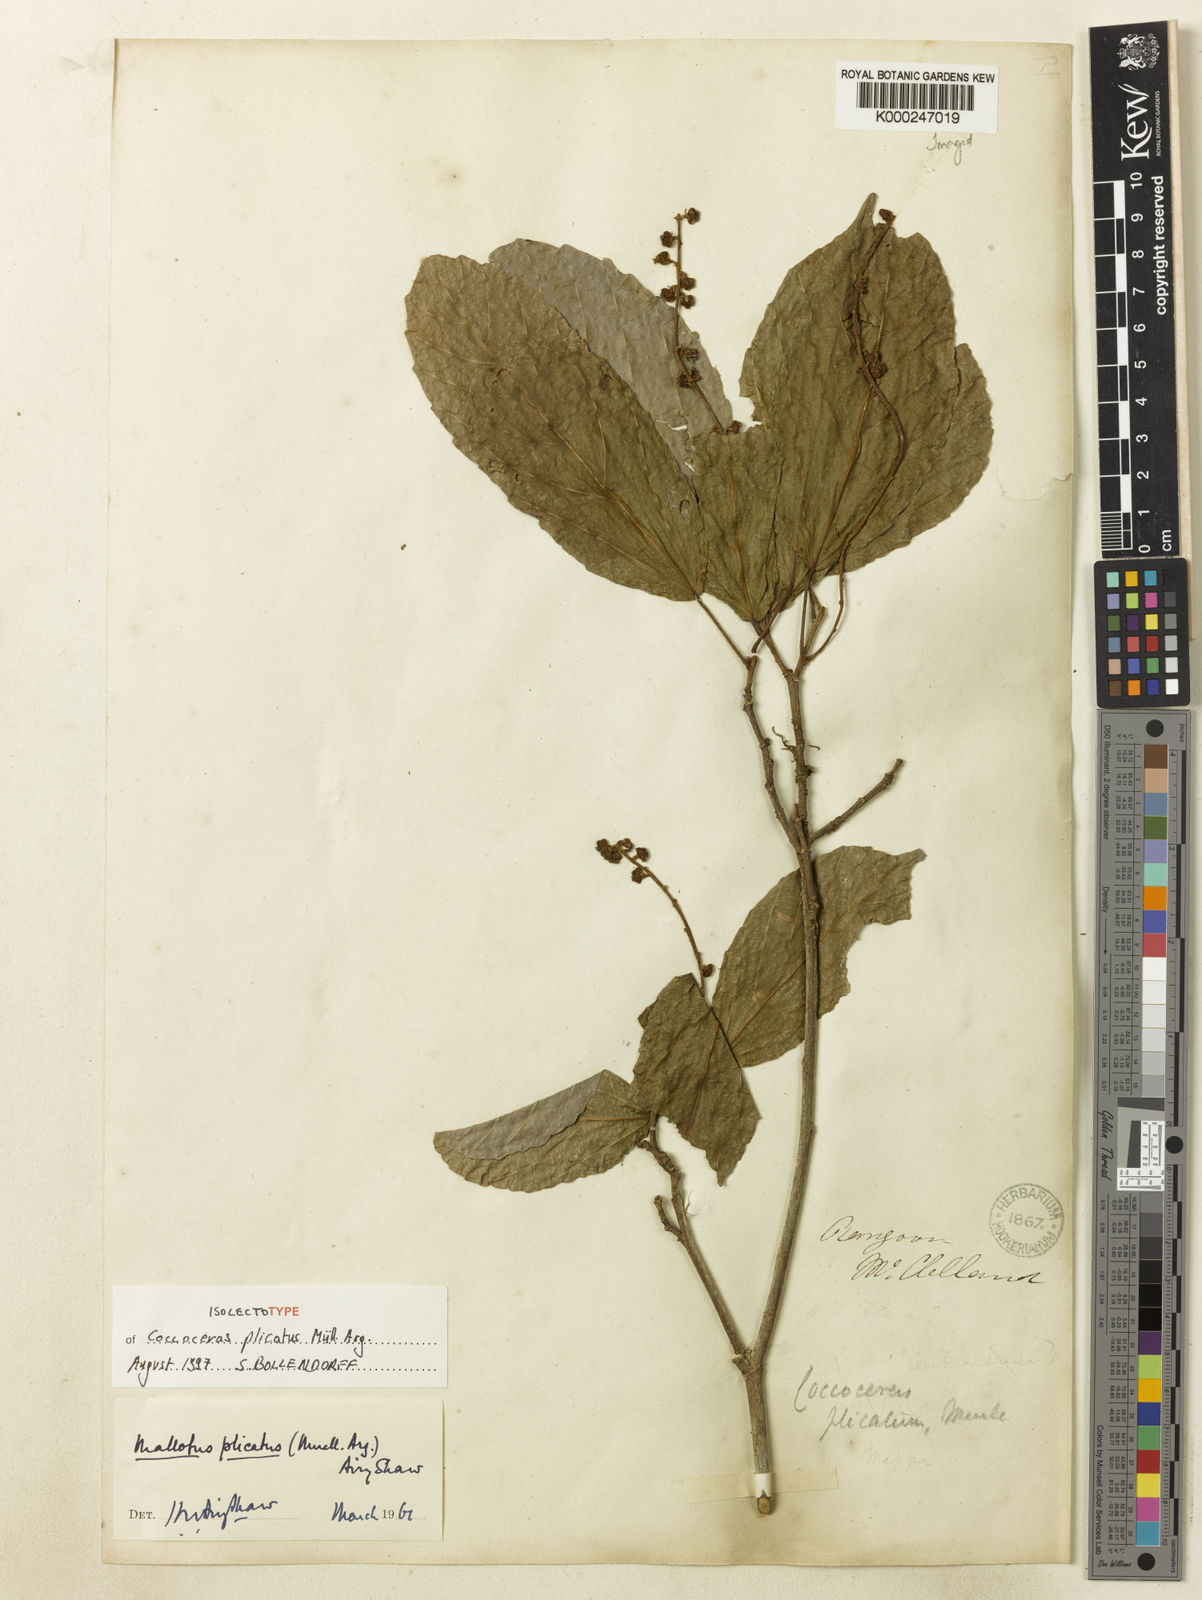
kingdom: Plantae
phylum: Tracheophyta
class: Magnoliopsida
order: Malpighiales
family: Euphorbiaceae
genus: Mallotus
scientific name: Mallotus
